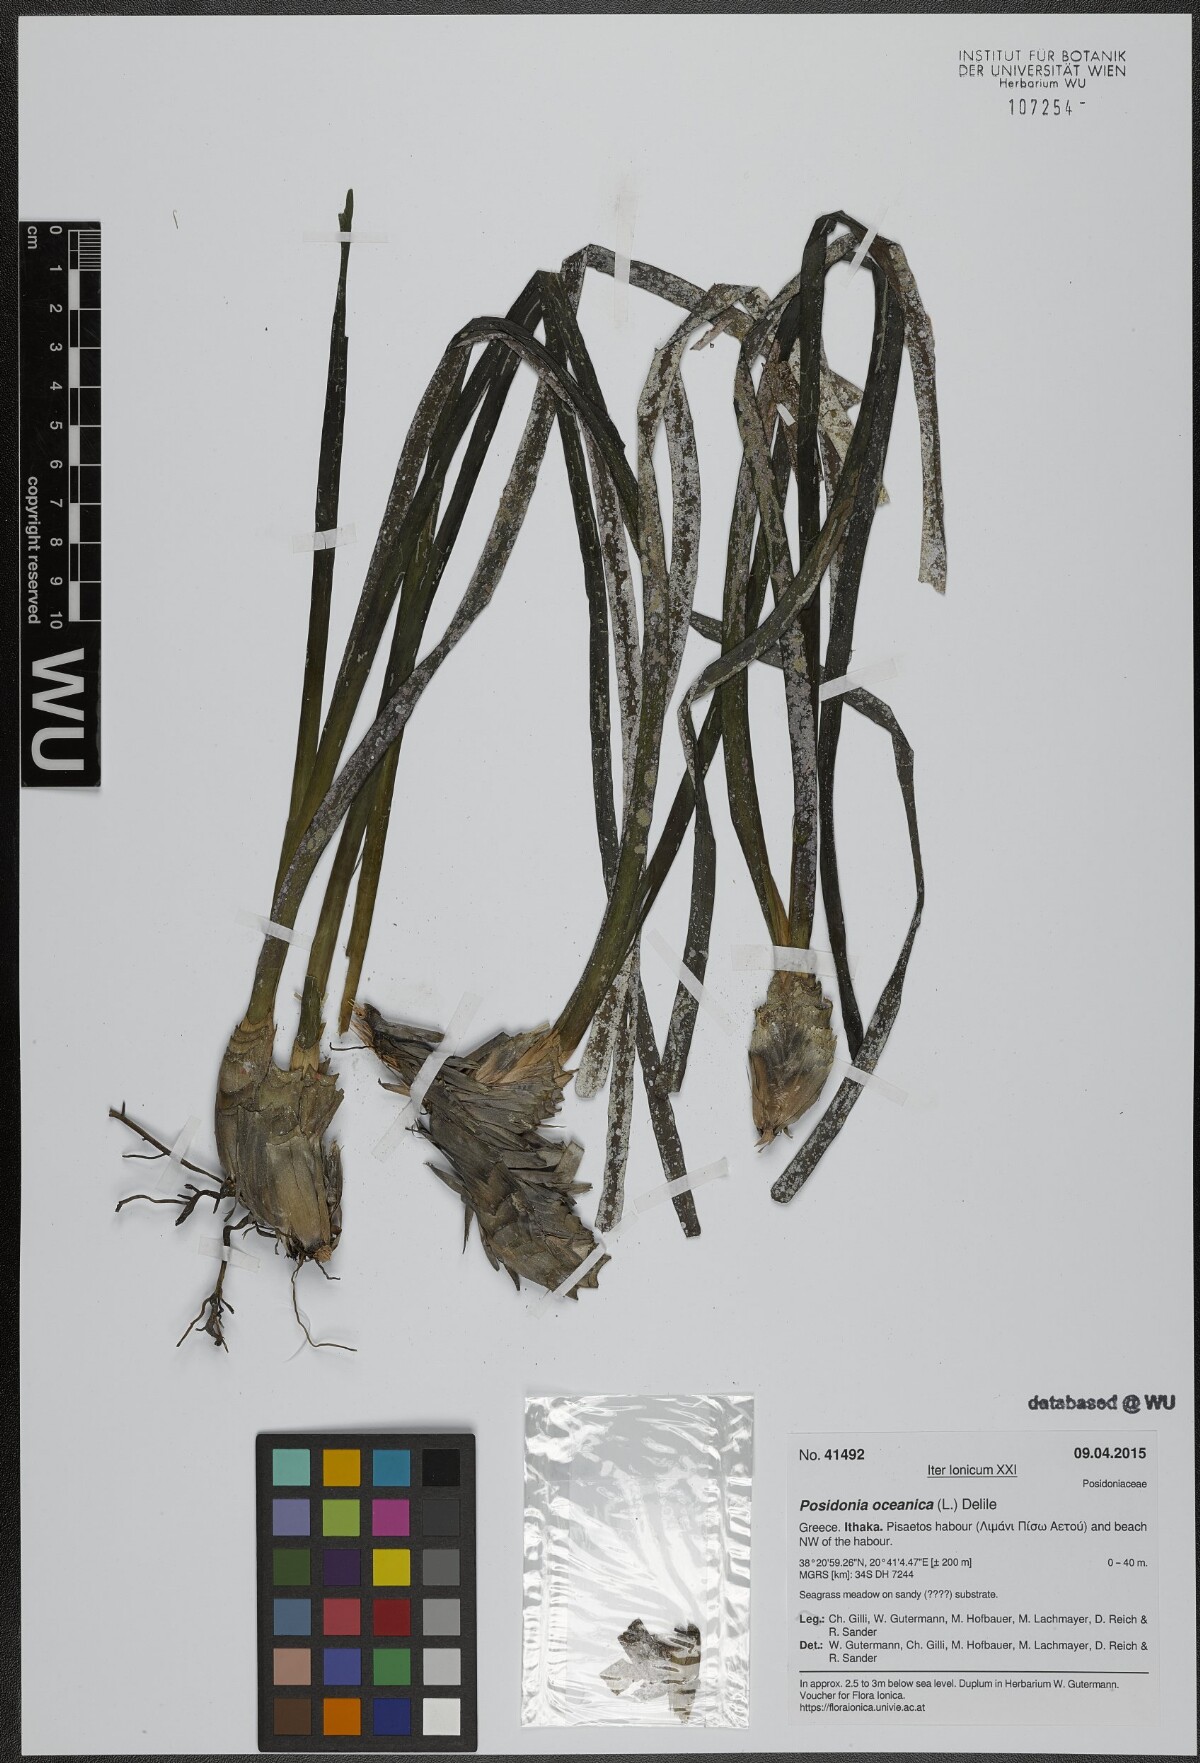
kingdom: Plantae
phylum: Tracheophyta
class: Liliopsida
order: Alismatales
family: Posidoniaceae
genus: Posidonia
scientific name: Posidonia oceanica
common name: Mediterranean tapeweed
